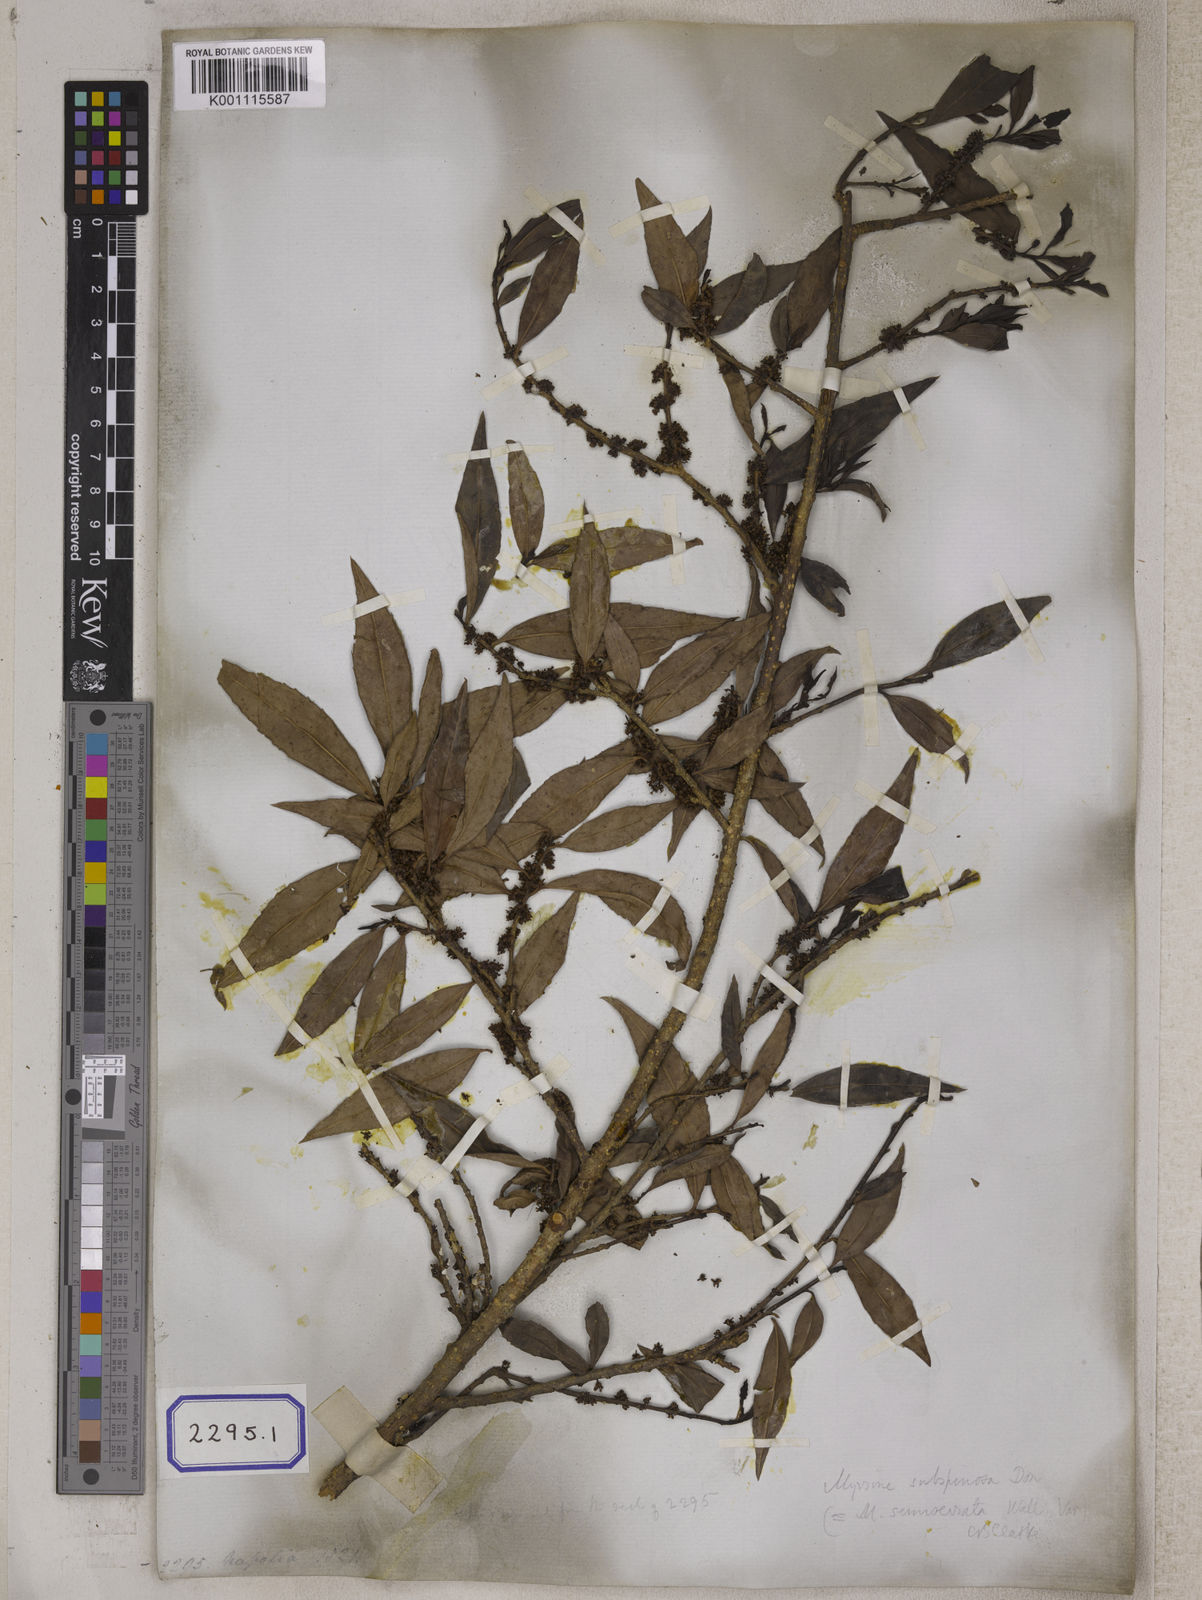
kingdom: Plantae
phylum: Tracheophyta
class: Magnoliopsida
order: Ericales
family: Primulaceae
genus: Myrsine
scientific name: Myrsine semiserrata
